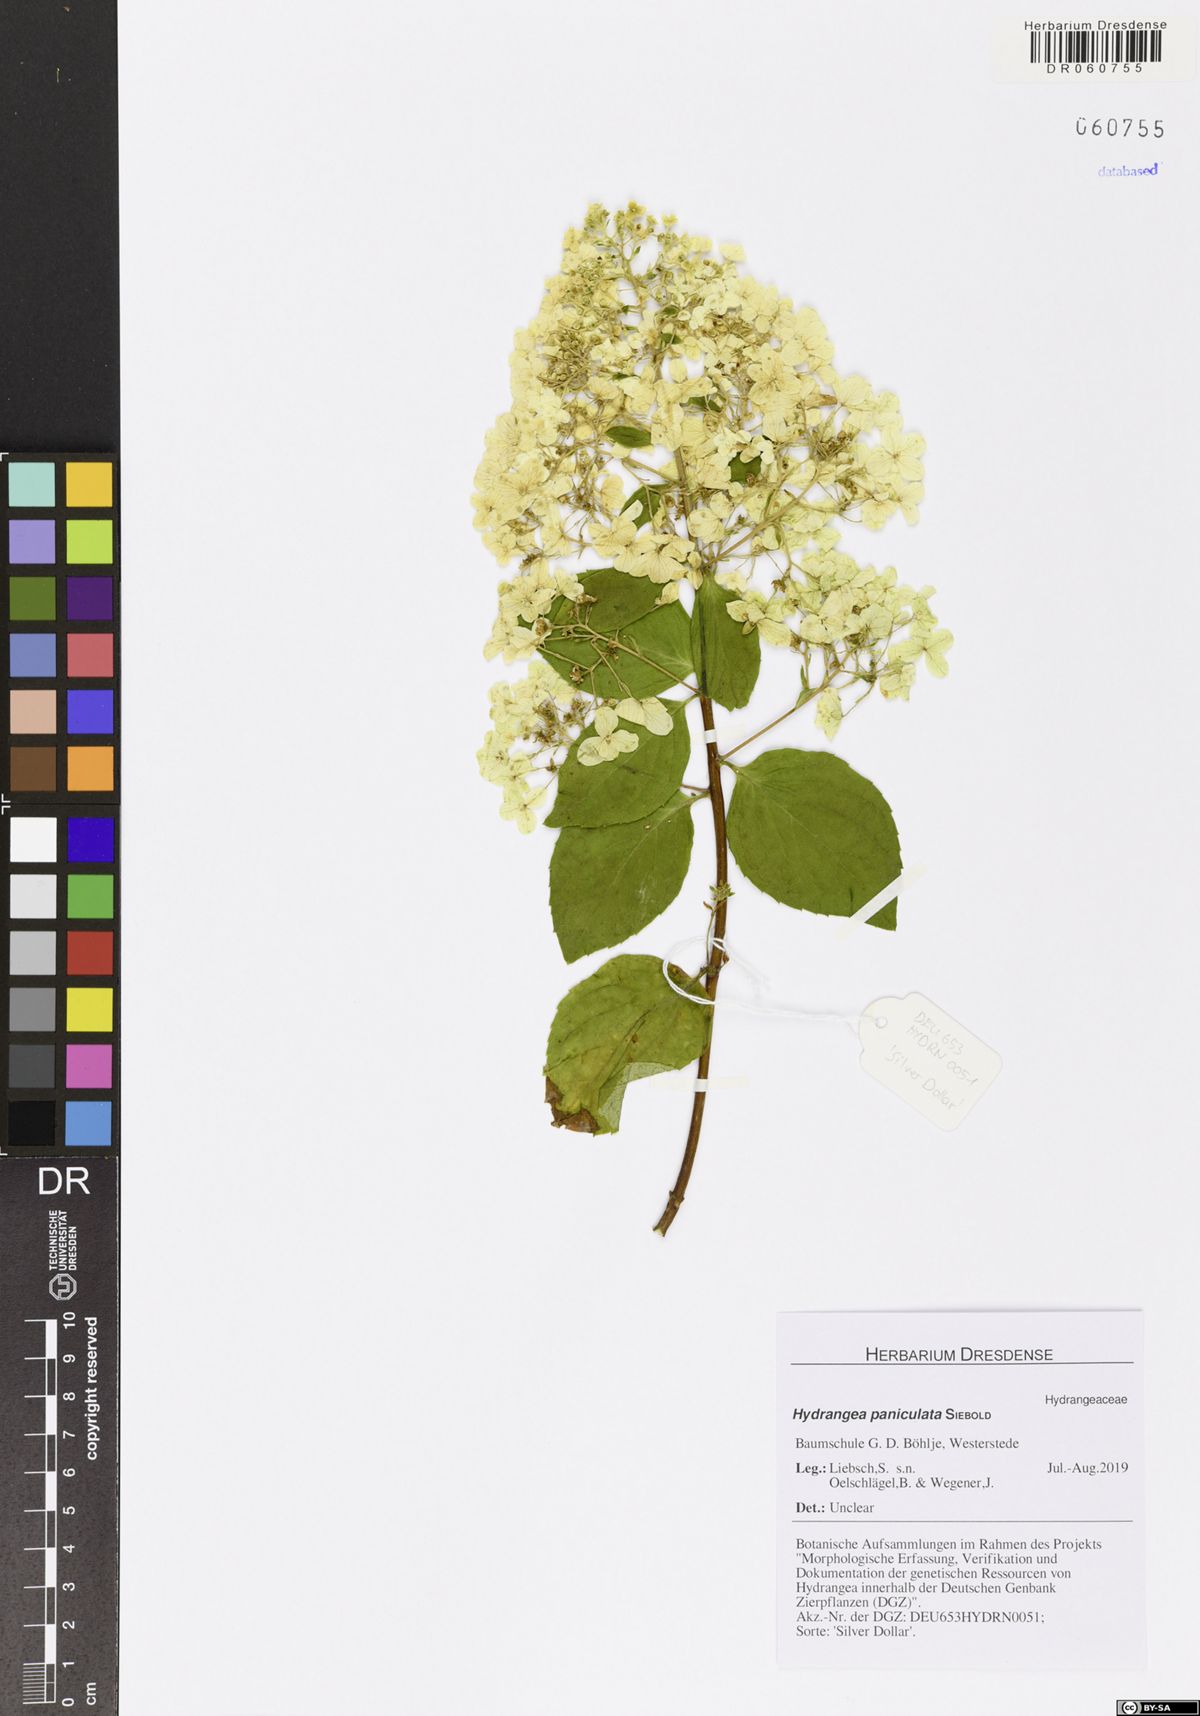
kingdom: Plantae
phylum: Tracheophyta
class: Magnoliopsida
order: Cornales
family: Hydrangeaceae
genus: Hydrangea
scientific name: Hydrangea paniculata
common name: Panicled hydrangea
